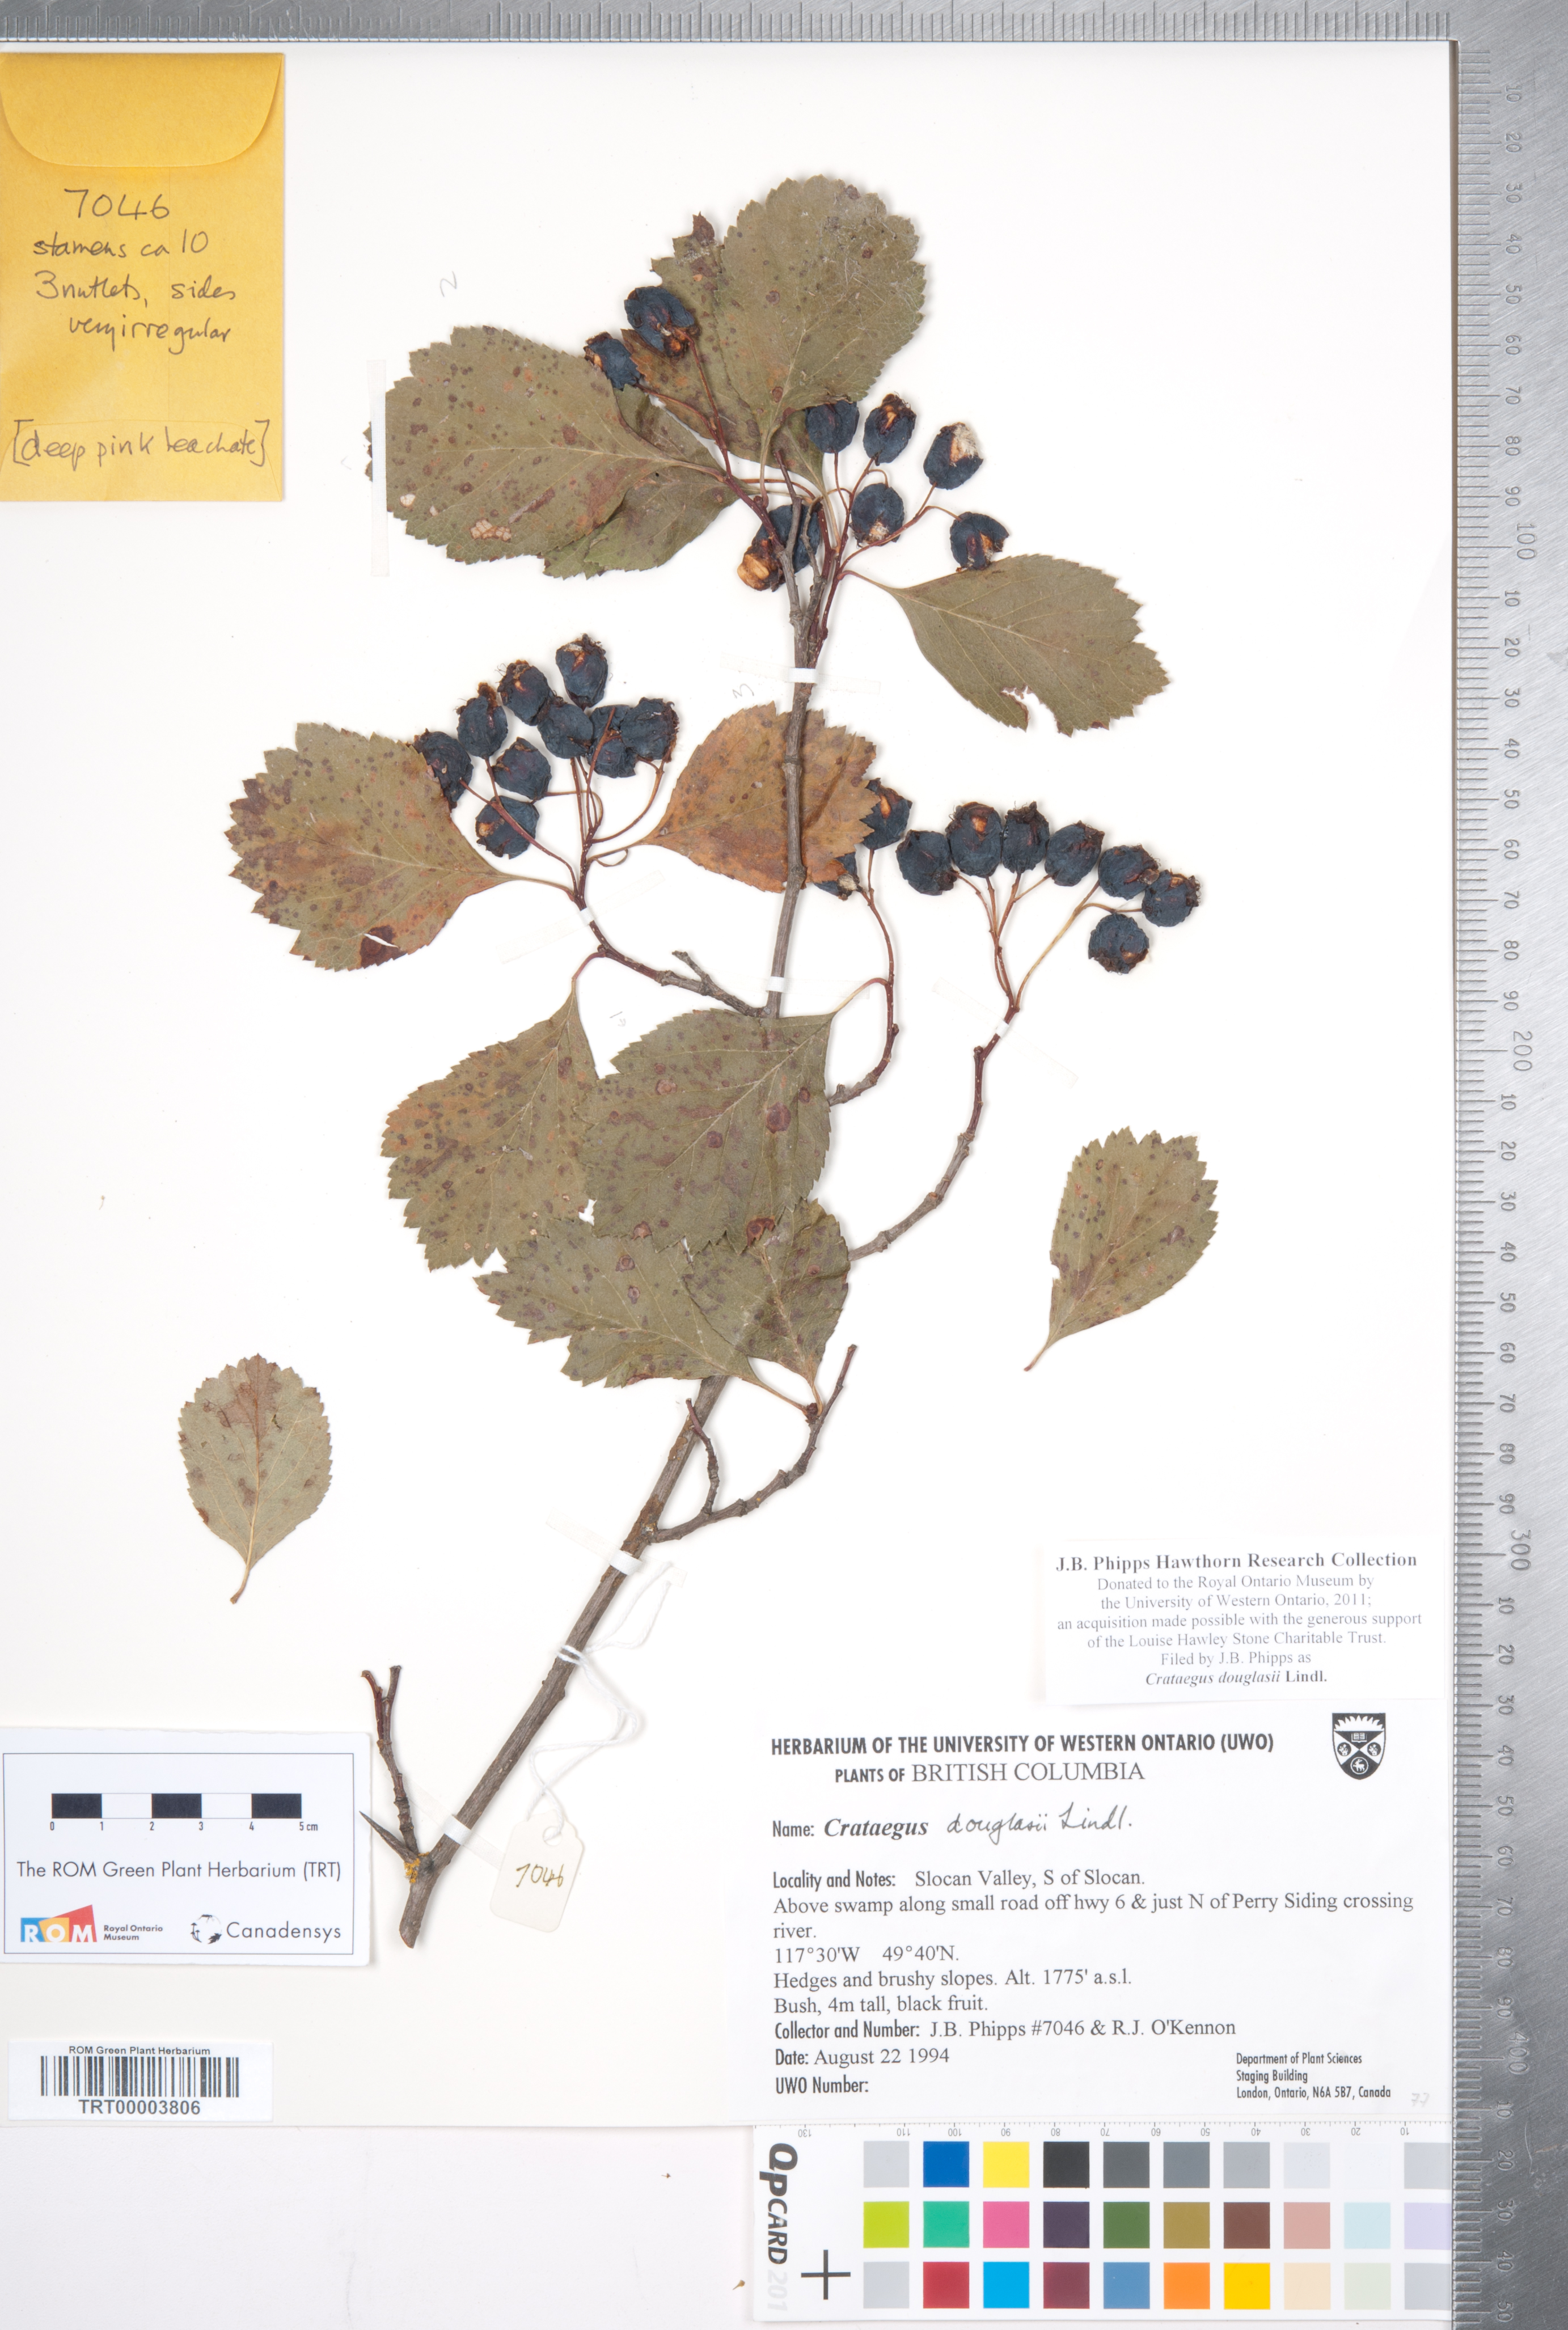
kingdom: Plantae
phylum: Tracheophyta
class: Magnoliopsida
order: Rosales
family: Rosaceae
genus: Crataegus
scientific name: Crataegus douglasii
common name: Black hawthorn
